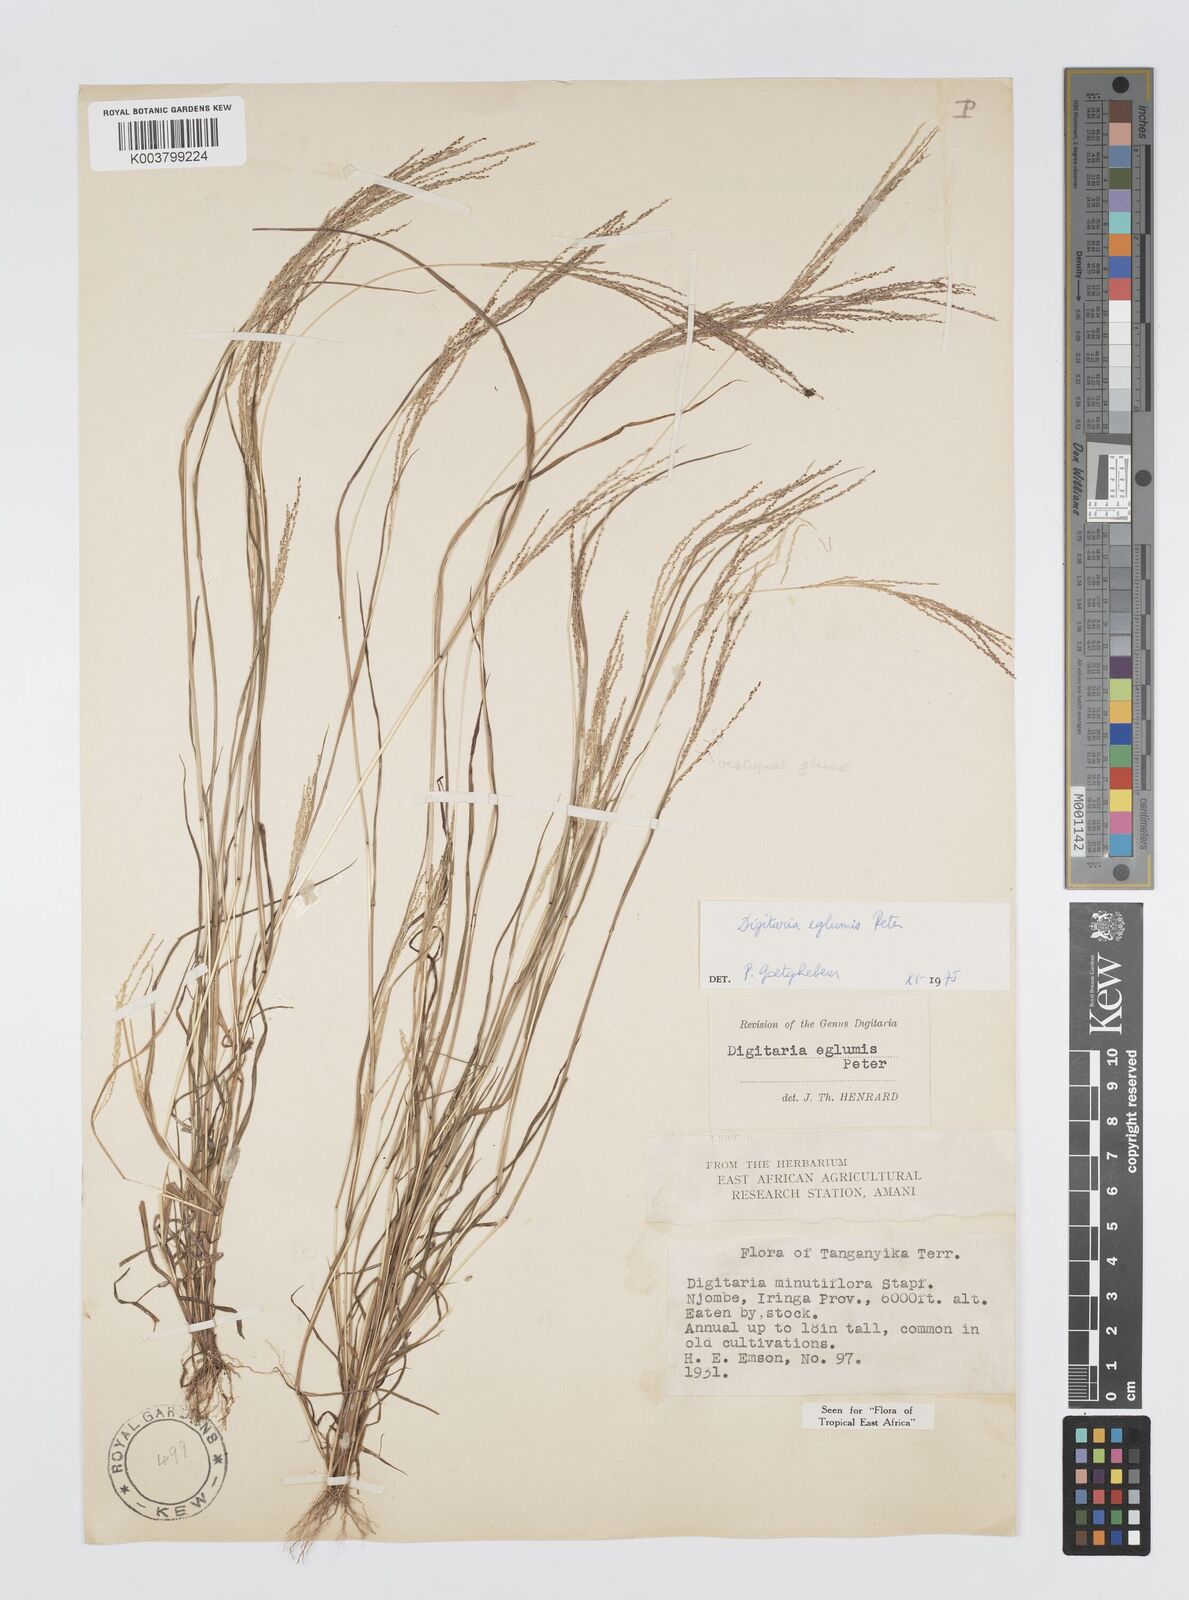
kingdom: Plantae
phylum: Tracheophyta
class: Liliopsida
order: Poales
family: Poaceae
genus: Digitaria
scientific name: Digitaria pseudodiagonalis
